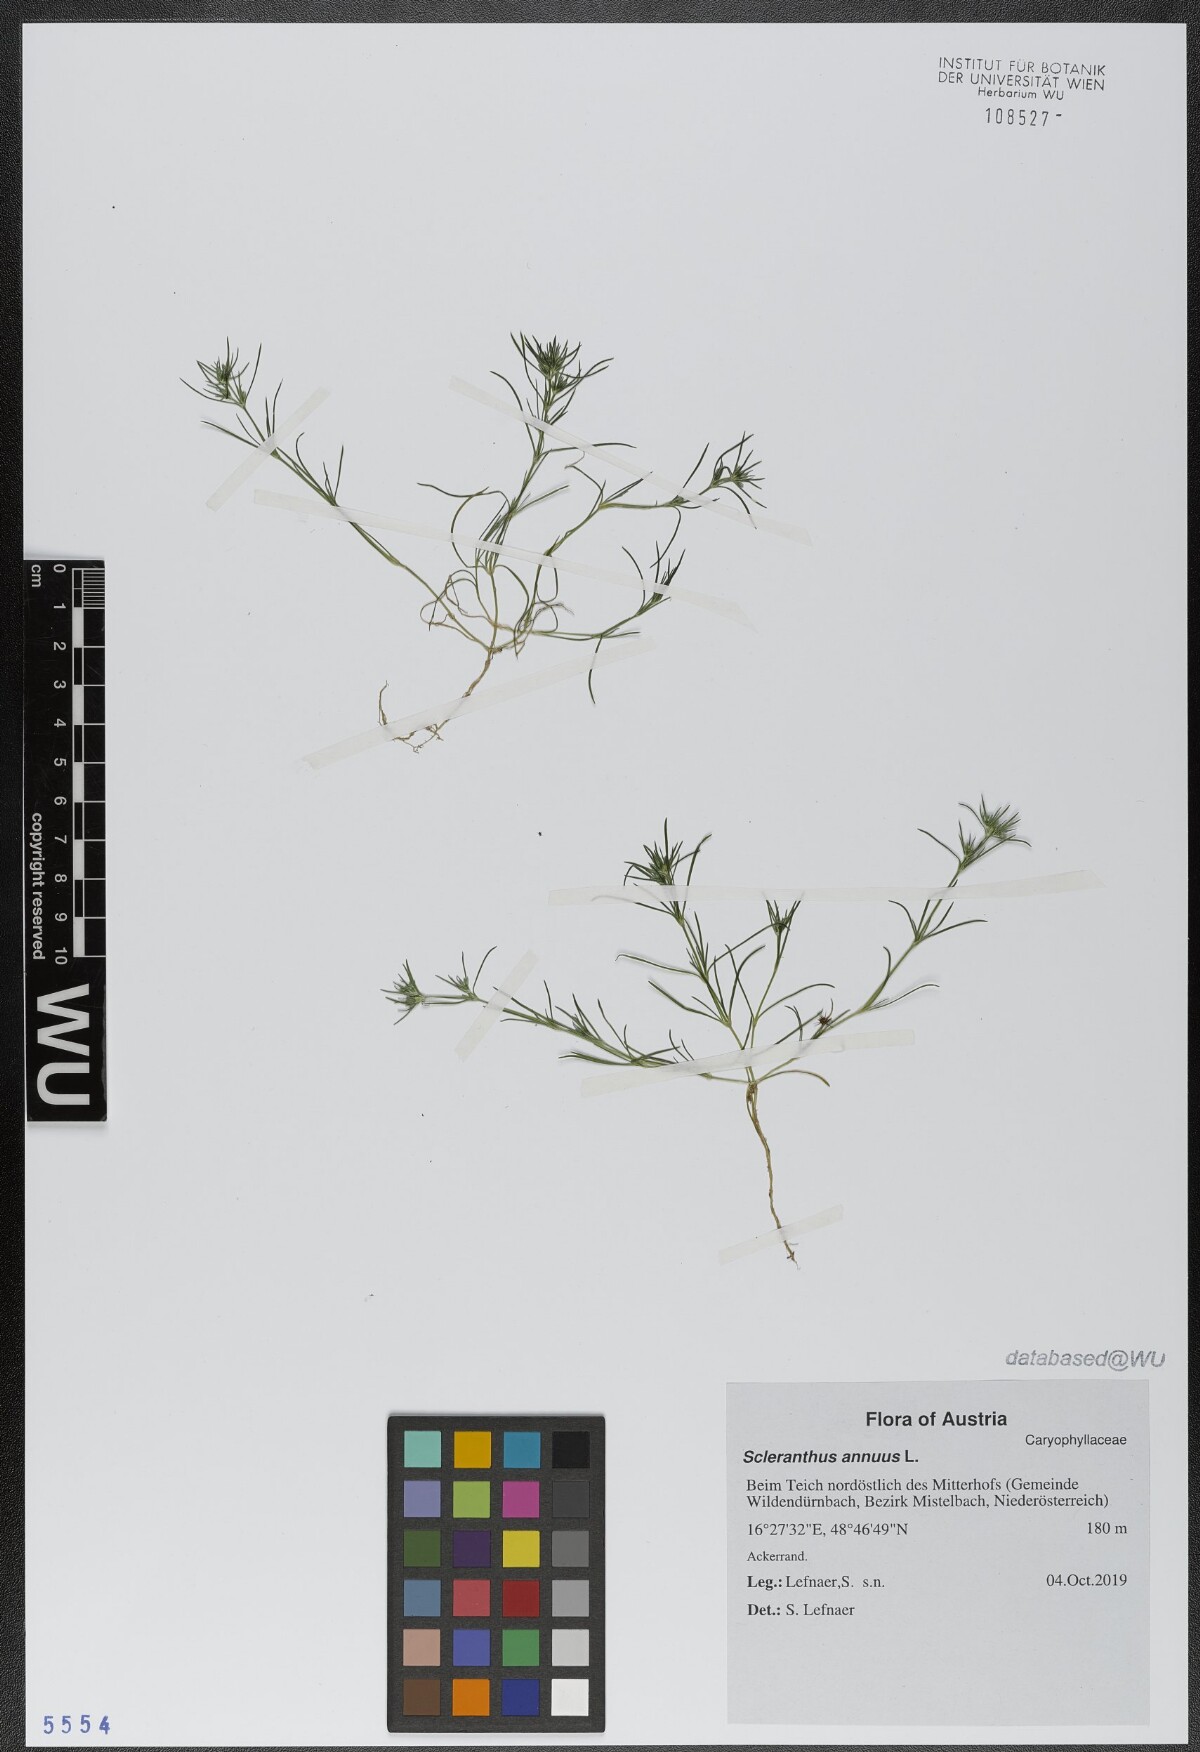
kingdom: Plantae
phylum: Tracheophyta
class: Magnoliopsida
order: Caryophyllales
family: Caryophyllaceae
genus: Scleranthus
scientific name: Scleranthus annuus
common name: Annual knawel
